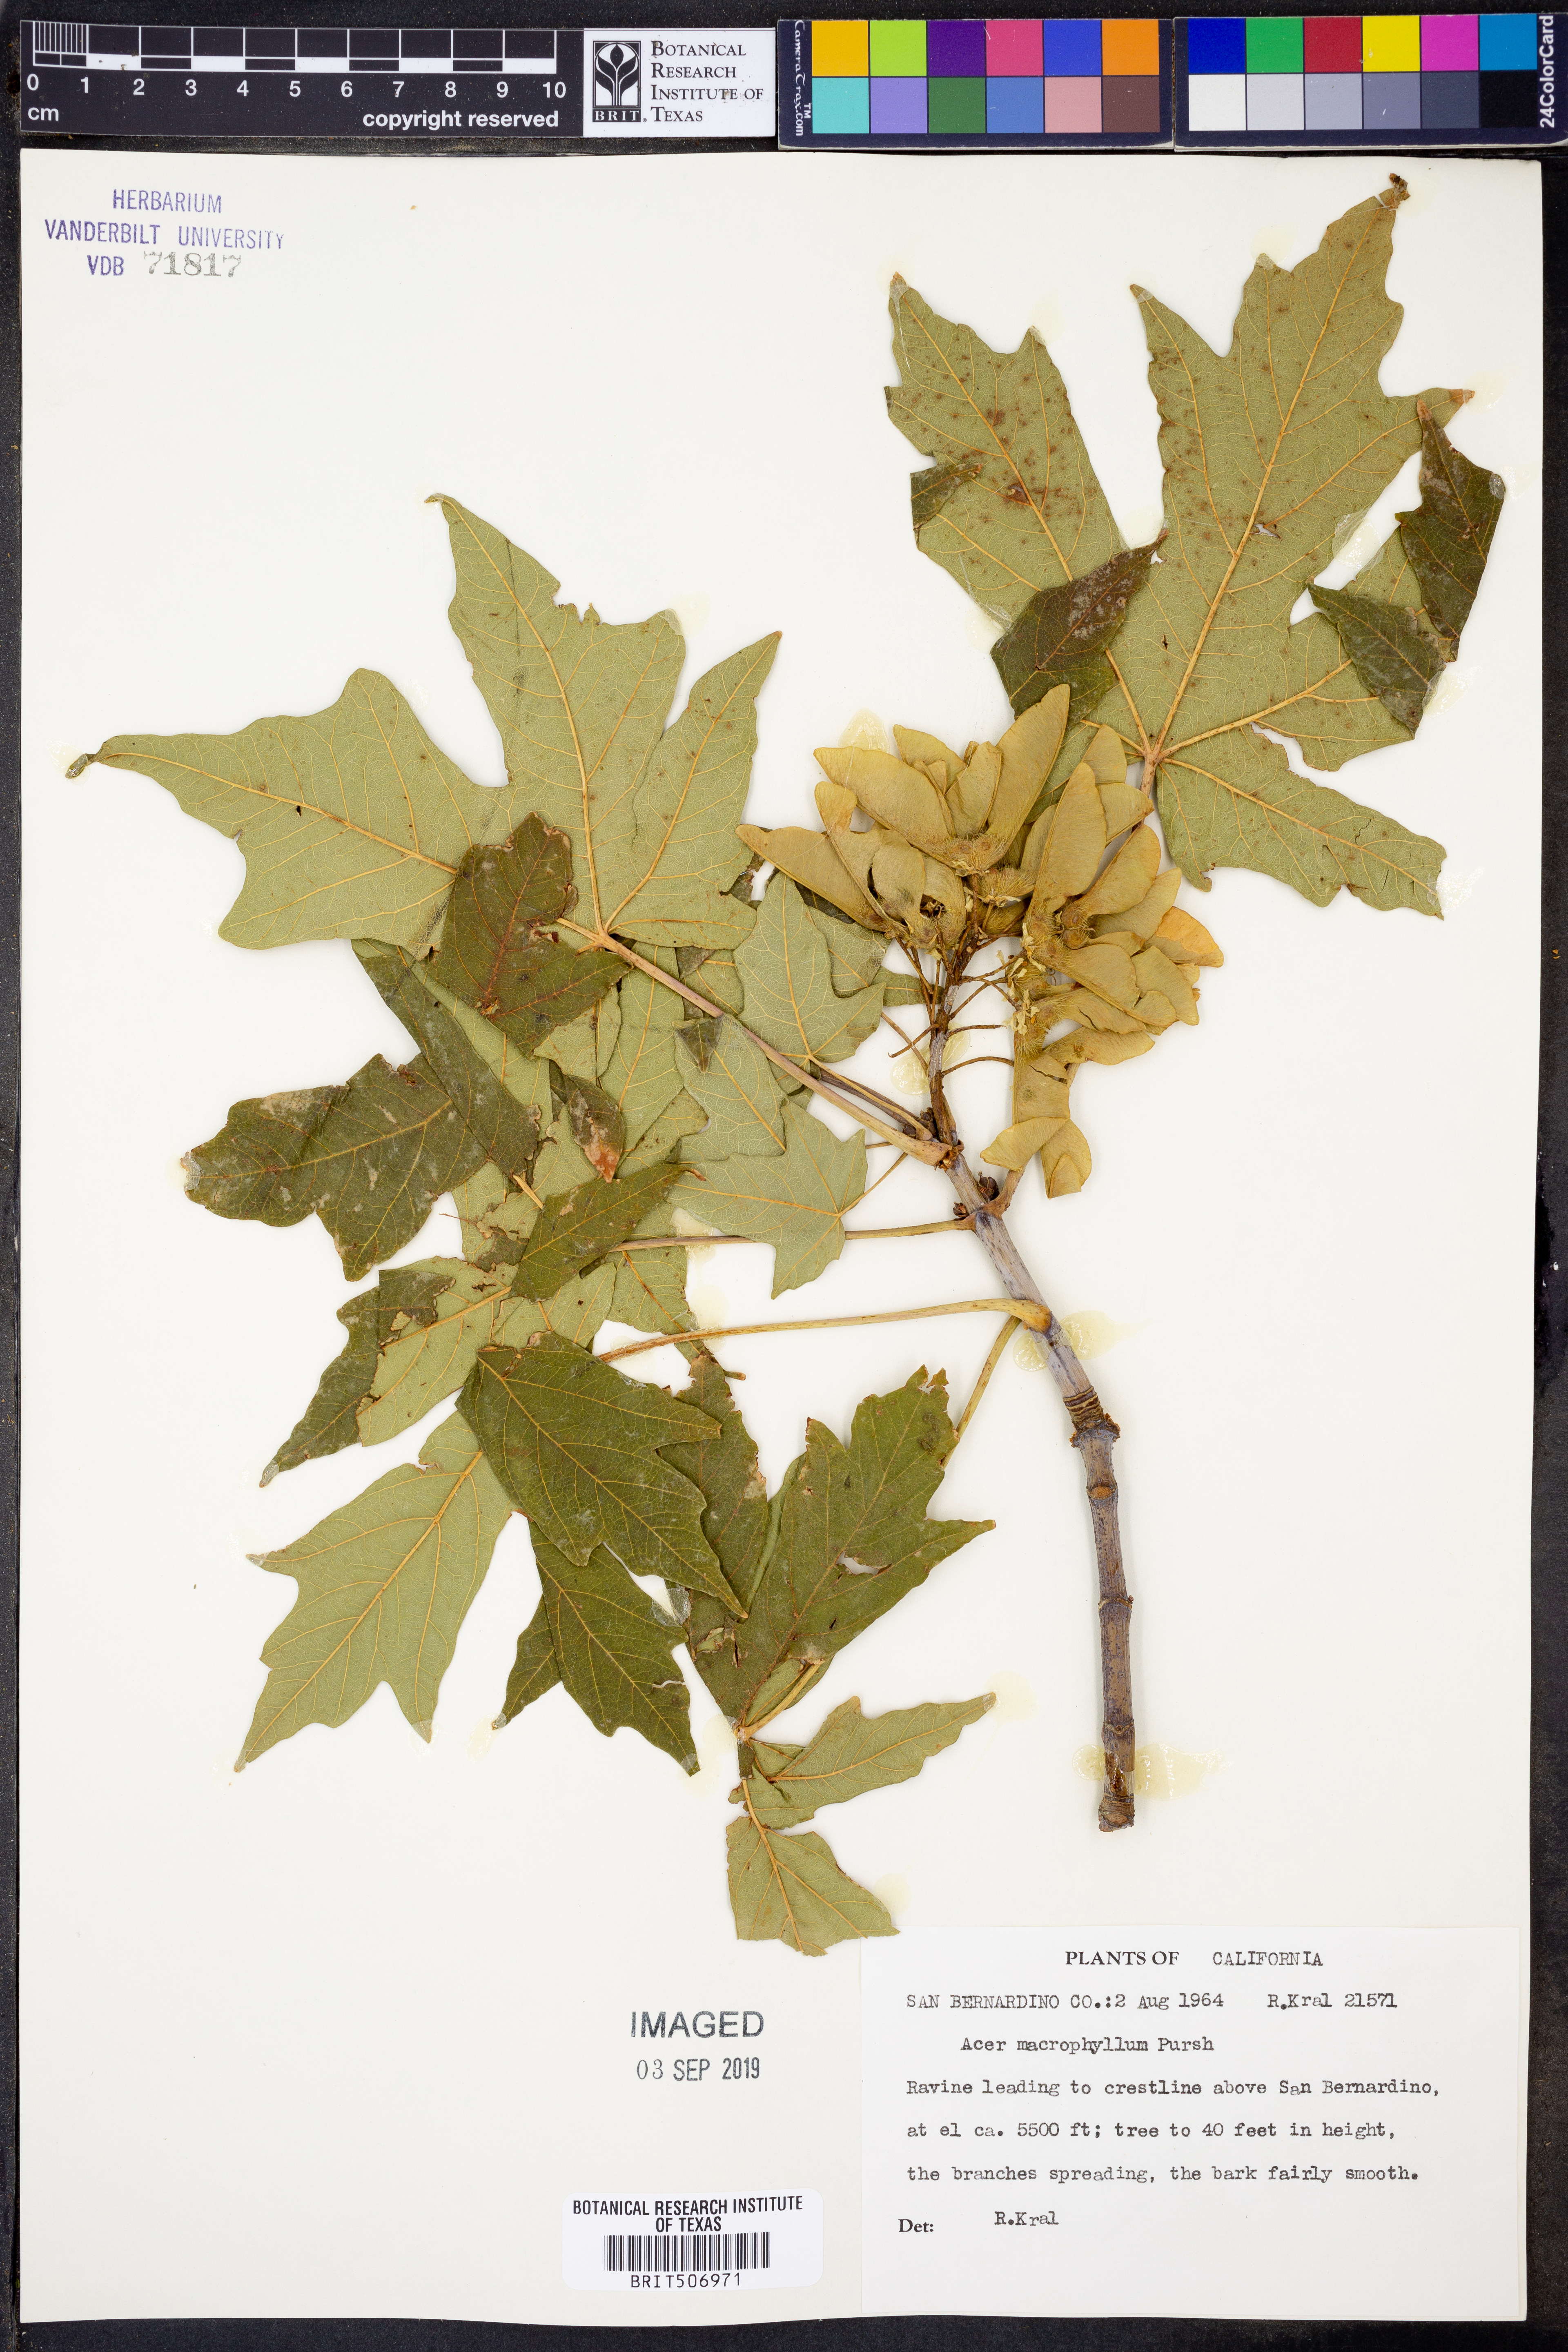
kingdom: Plantae
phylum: Tracheophyta
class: Magnoliopsida
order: Sapindales
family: Sapindaceae
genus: Acer
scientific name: Acer macrophyllum
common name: Oregon maple
